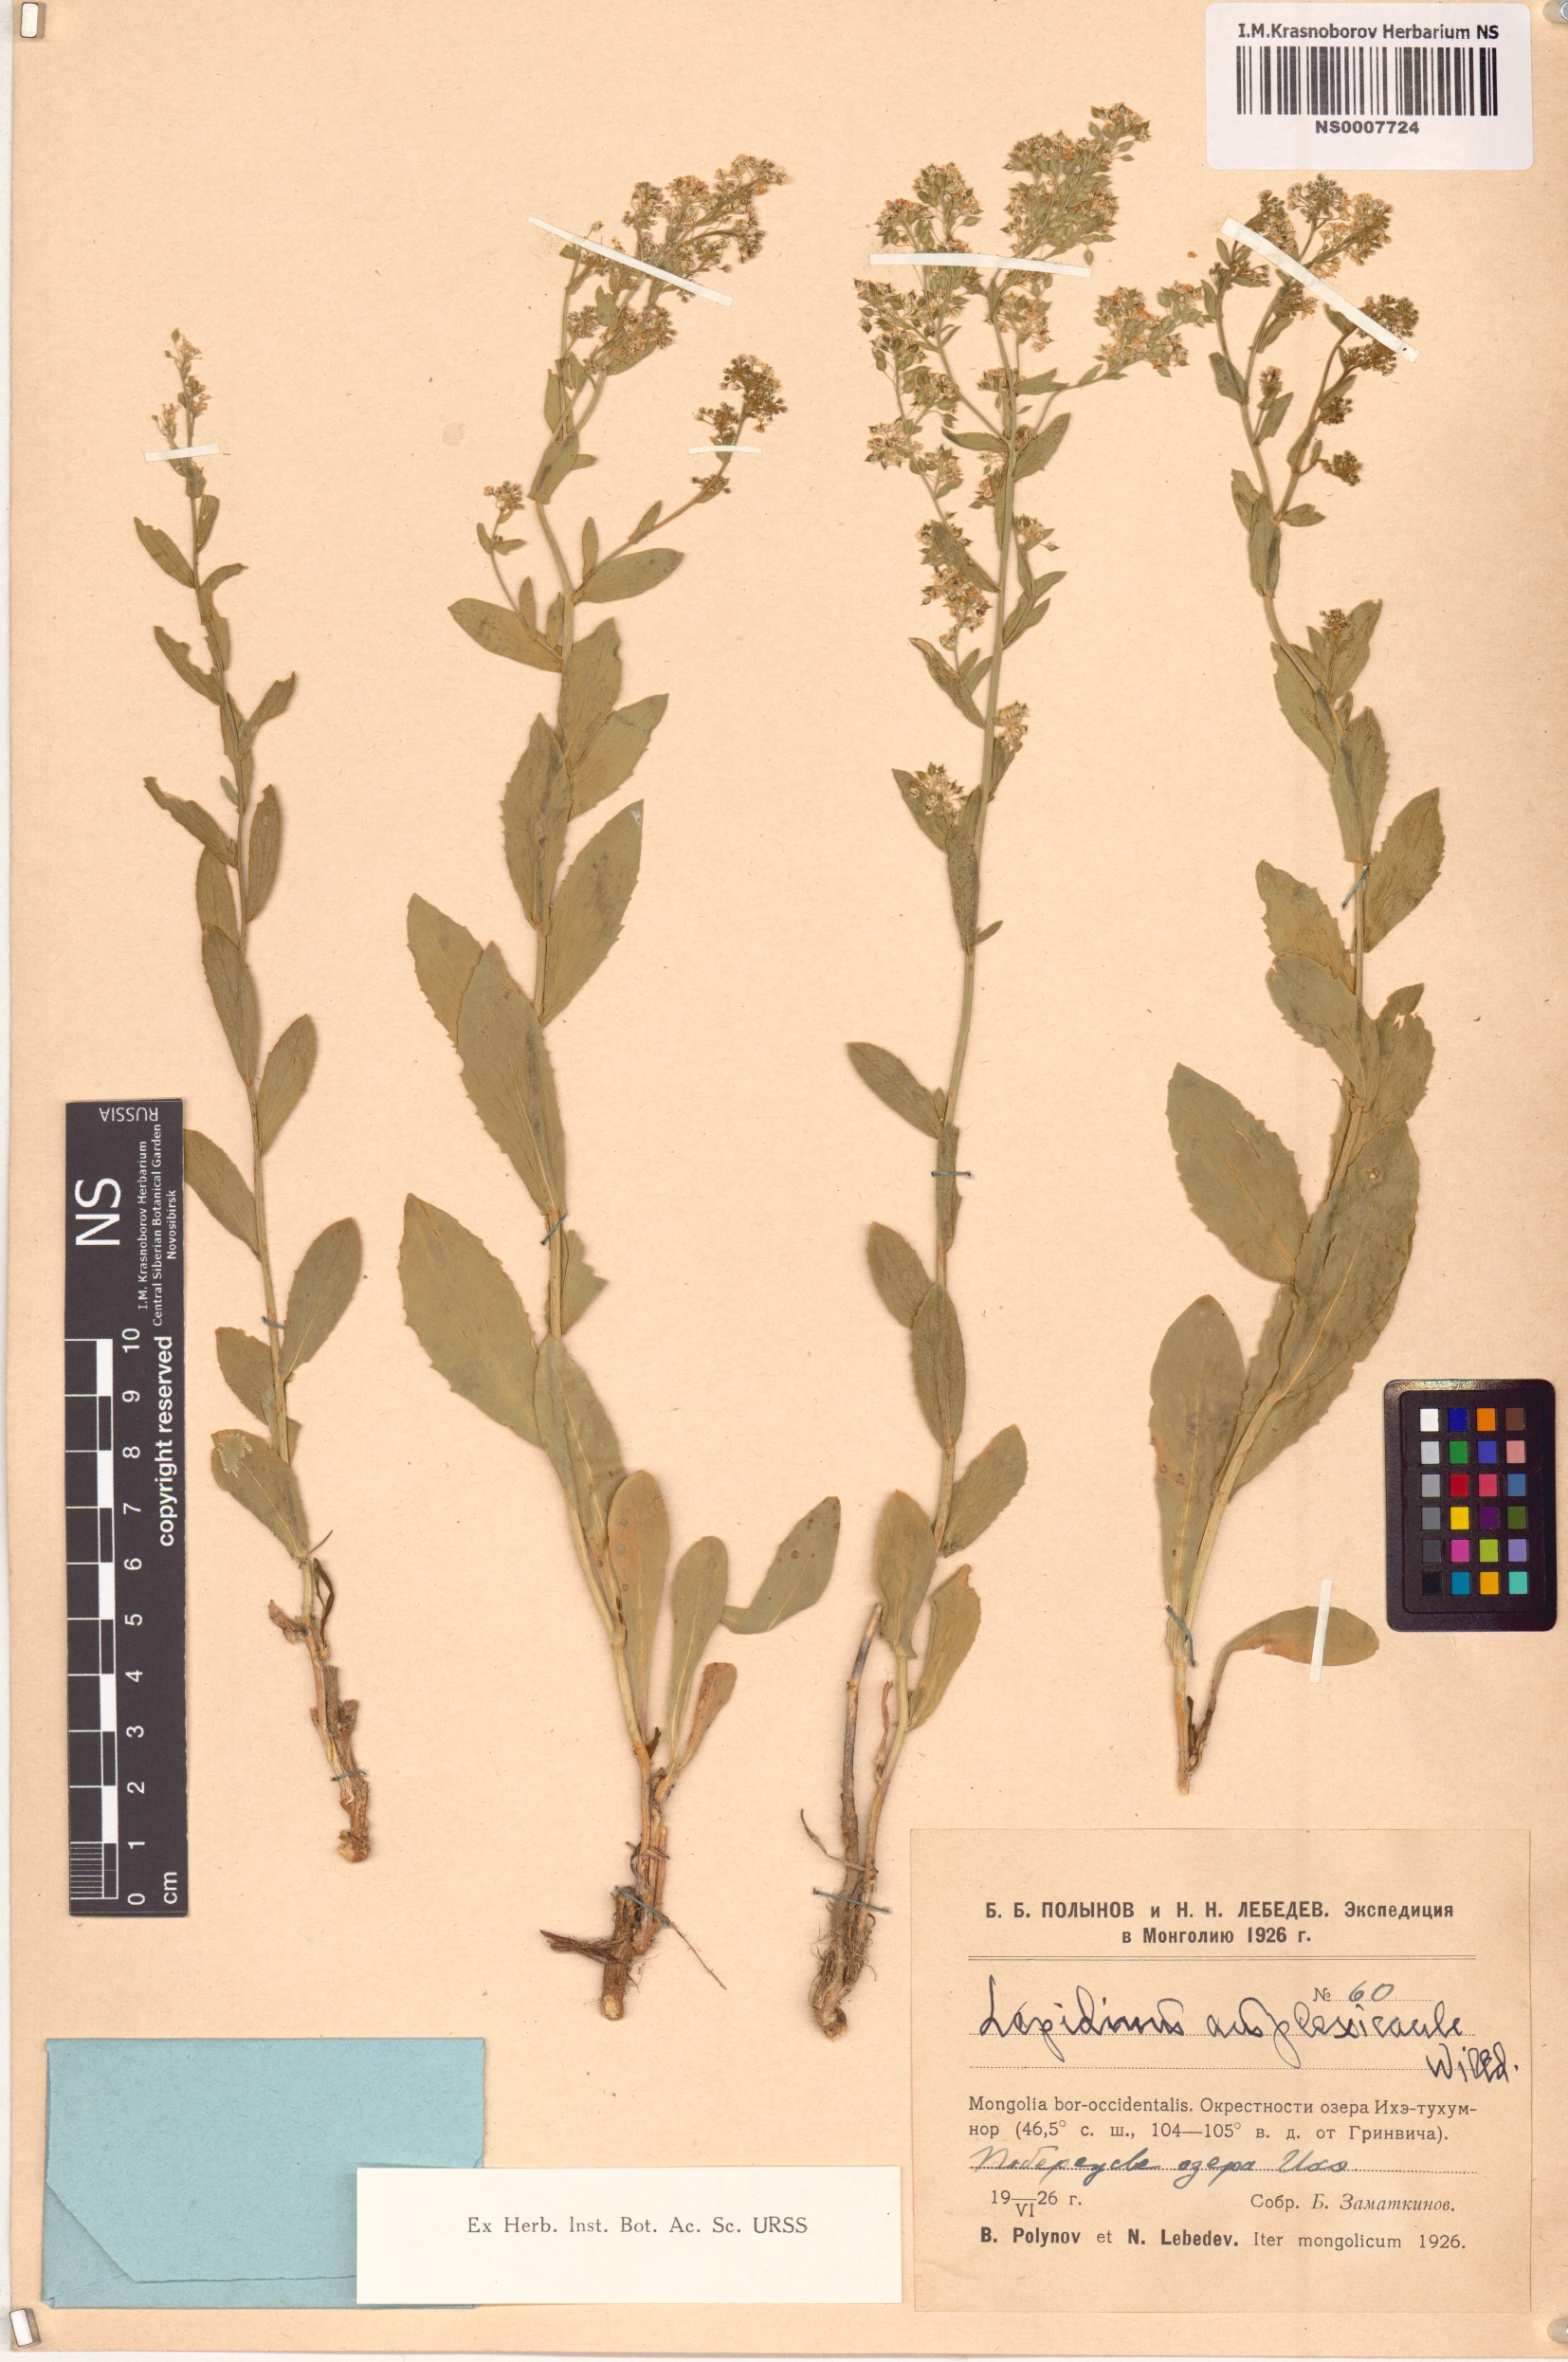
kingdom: Plantae
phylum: Tracheophyta
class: Magnoliopsida
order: Brassicales
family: Brassicaceae
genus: Lepidium
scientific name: Lepidium amplexicaule
